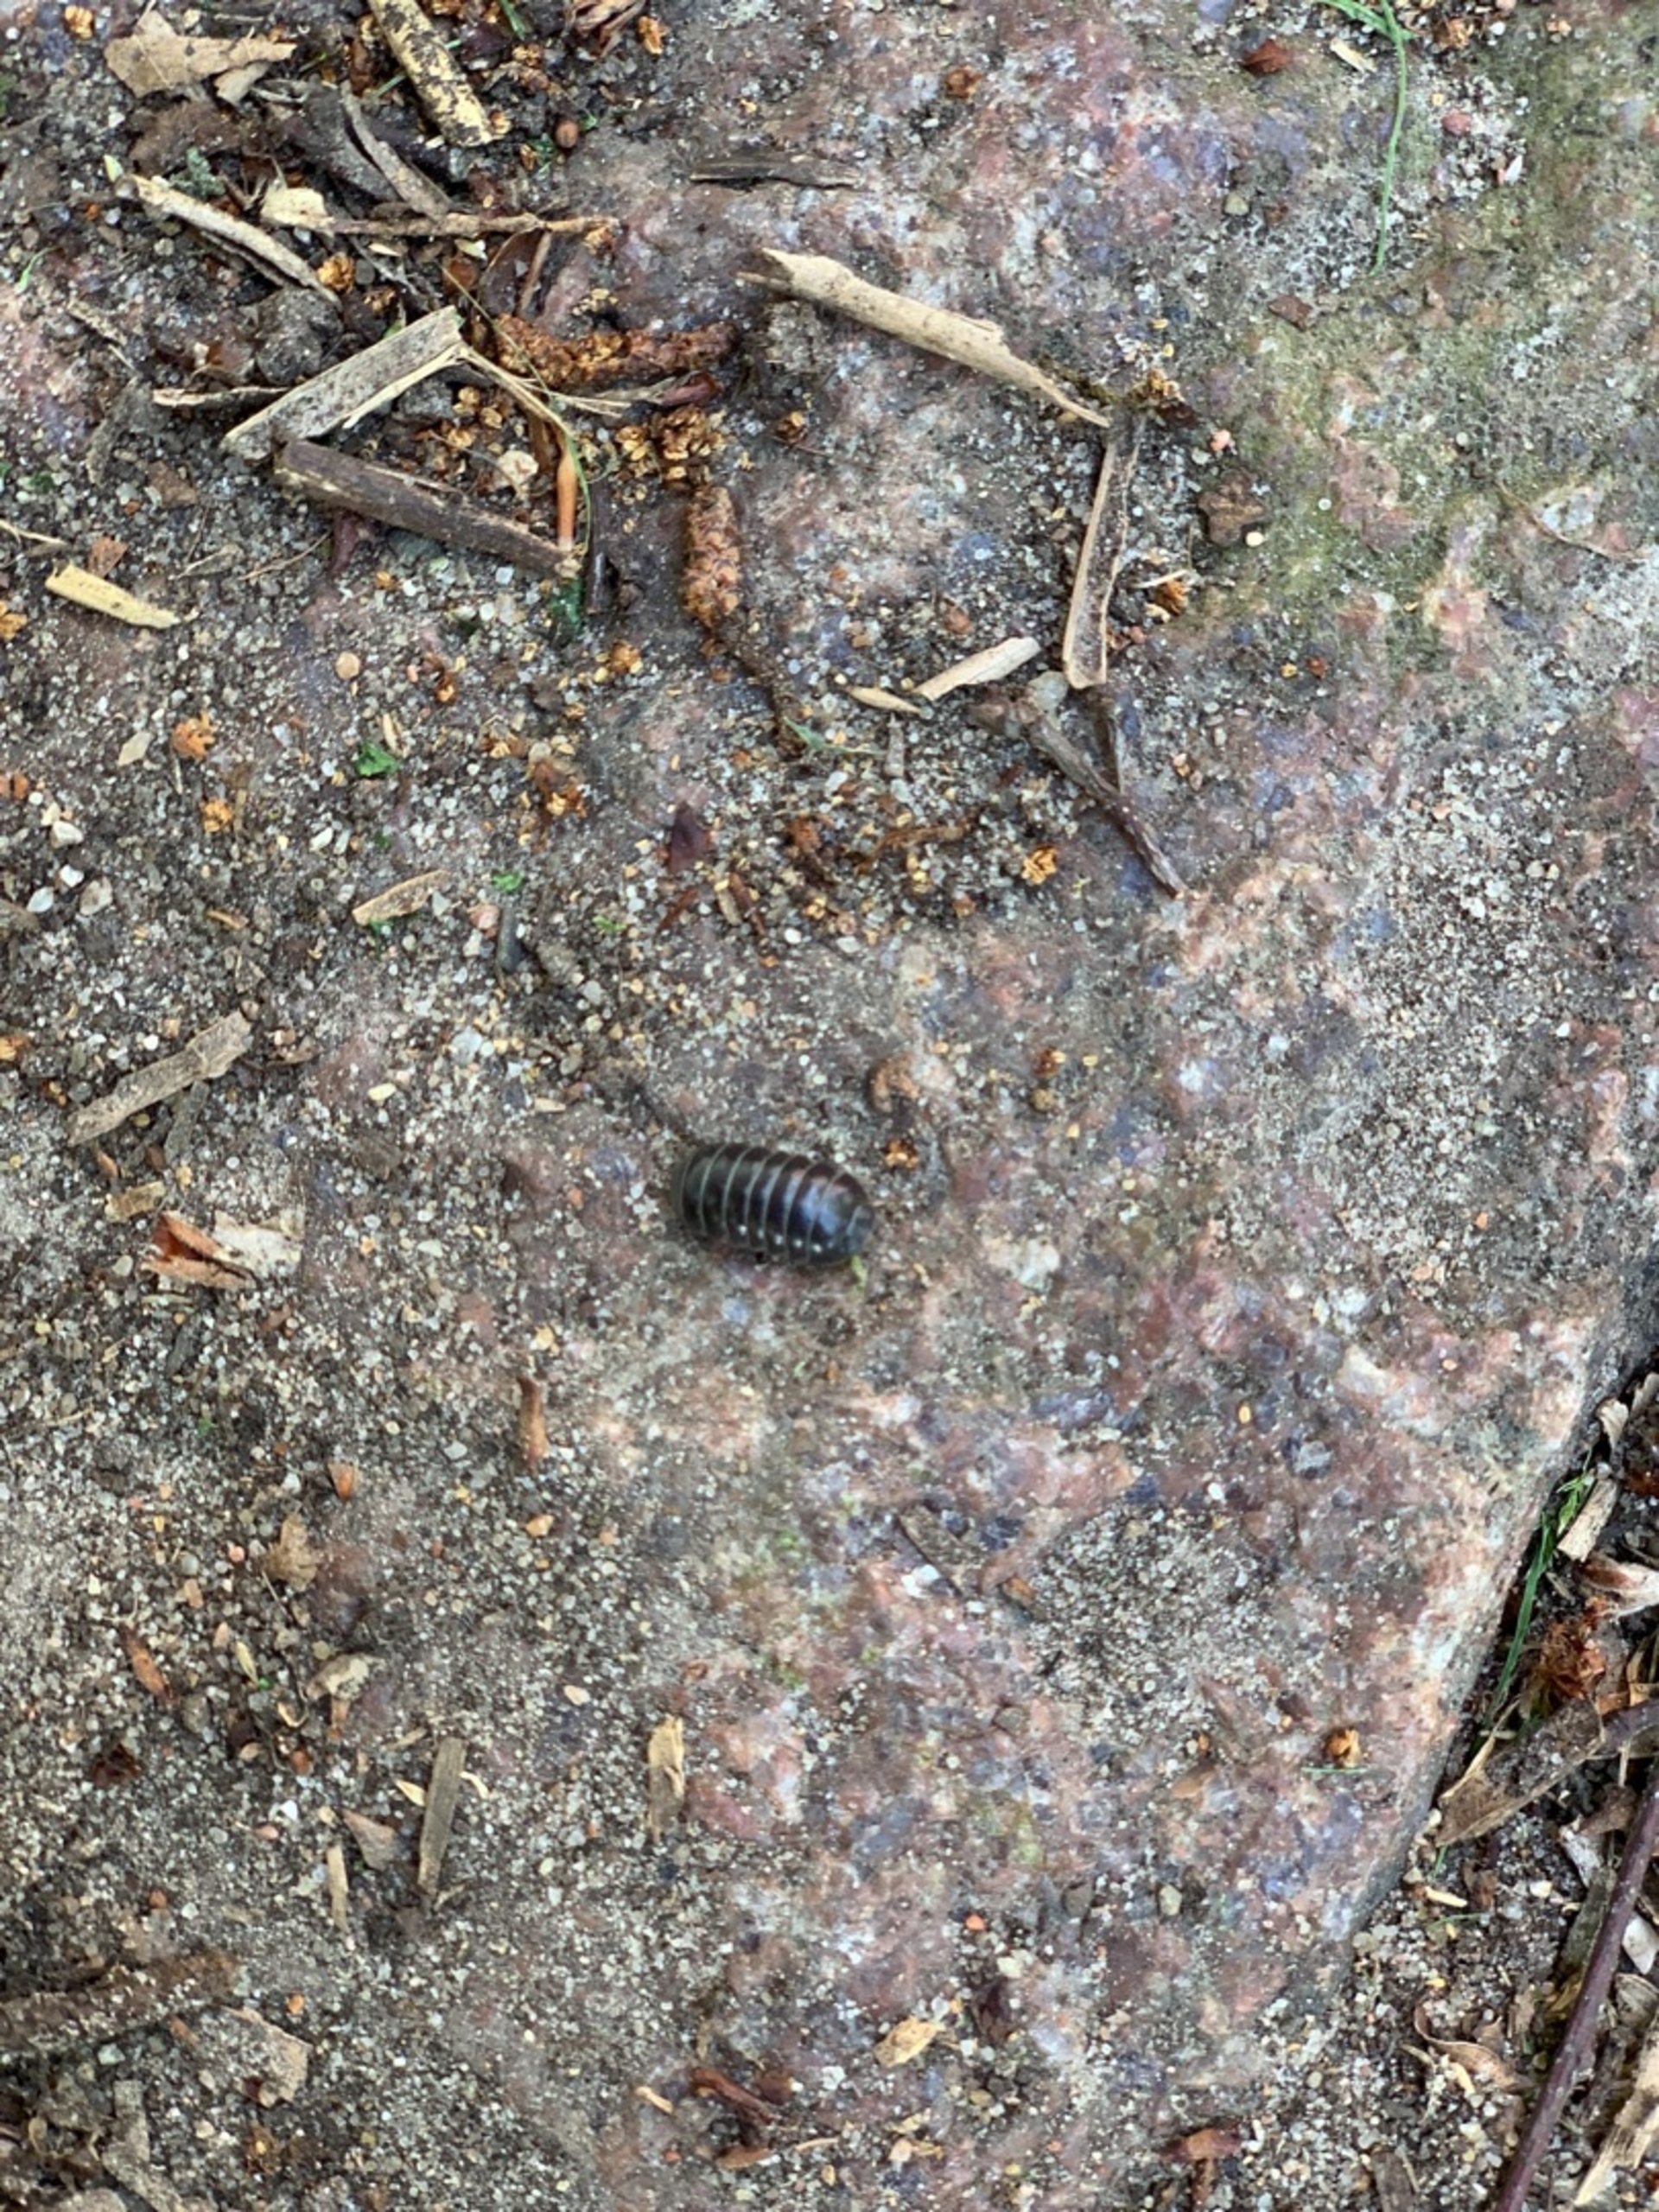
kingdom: Animalia
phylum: Arthropoda
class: Malacostraca
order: Isopoda
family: Armadillidiidae
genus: Armadillidium
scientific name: Armadillidium vulgare
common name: Almindelig kuglebænkebider
